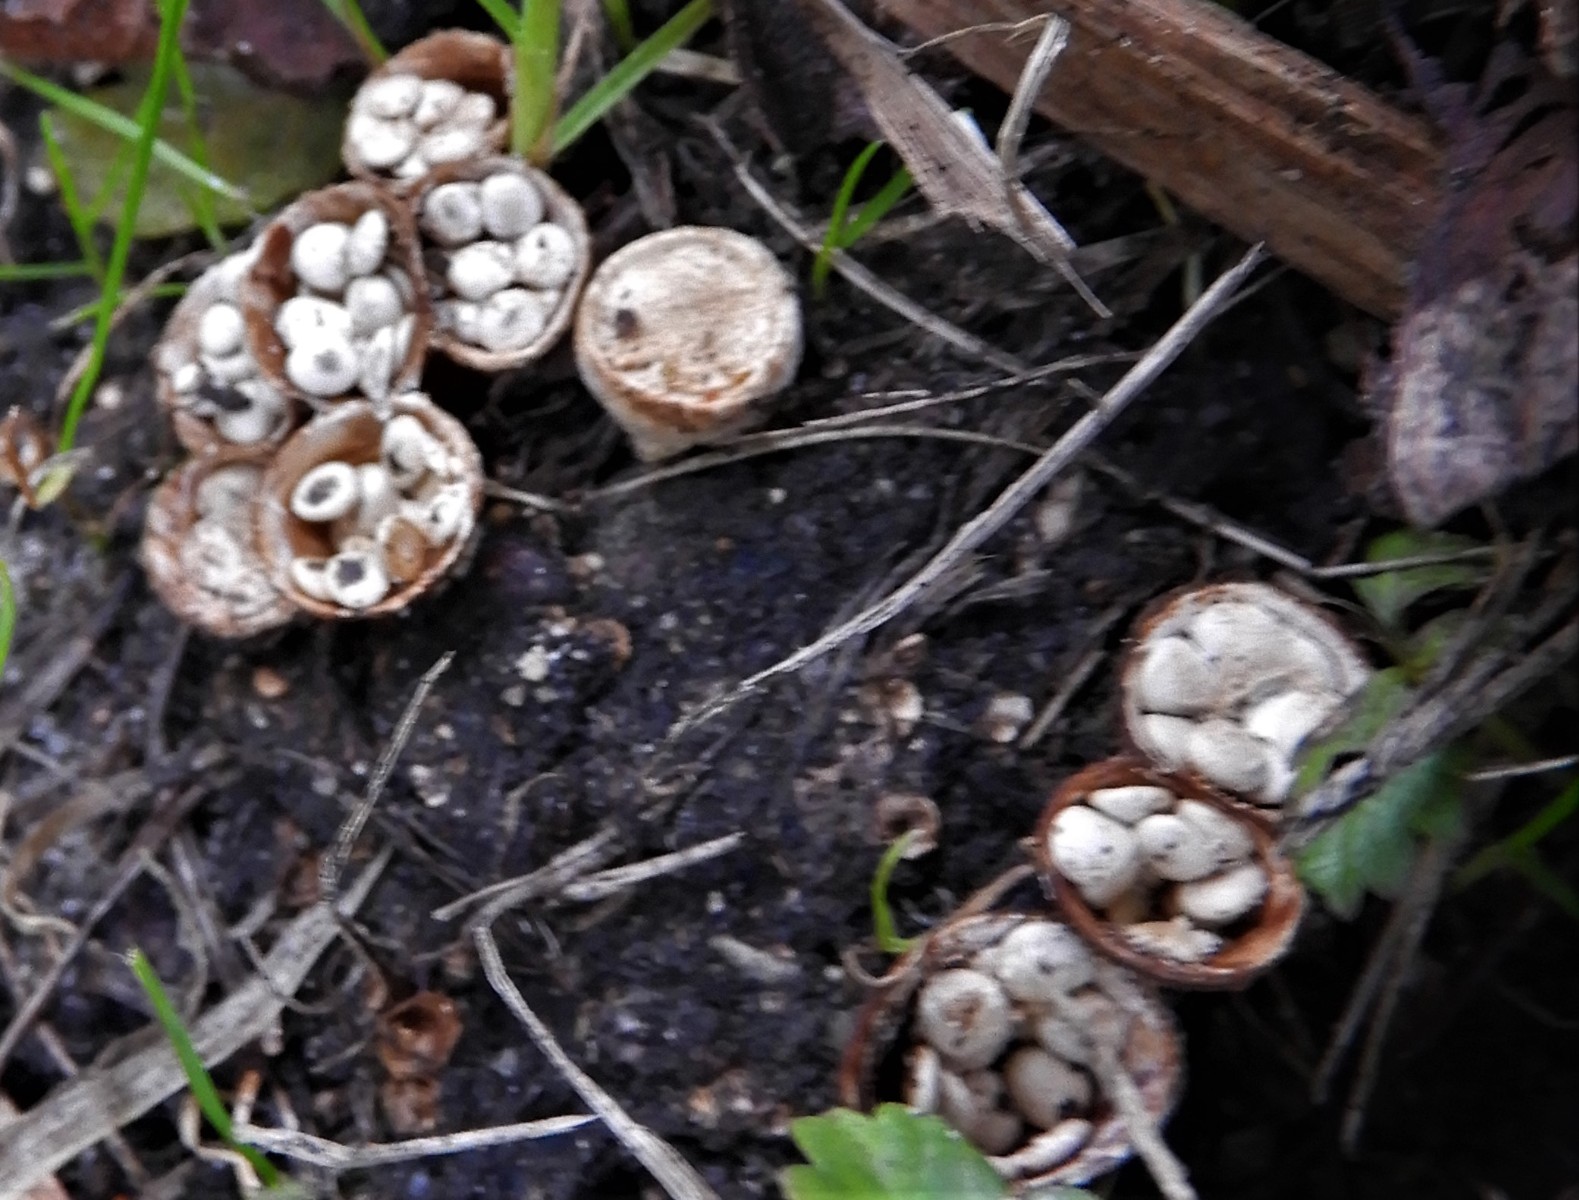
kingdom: Fungi
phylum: Basidiomycota
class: Agaricomycetes
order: Agaricales
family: Nidulariaceae
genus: Crucibulum
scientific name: Crucibulum crucibuliforme
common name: krukkesvamp
